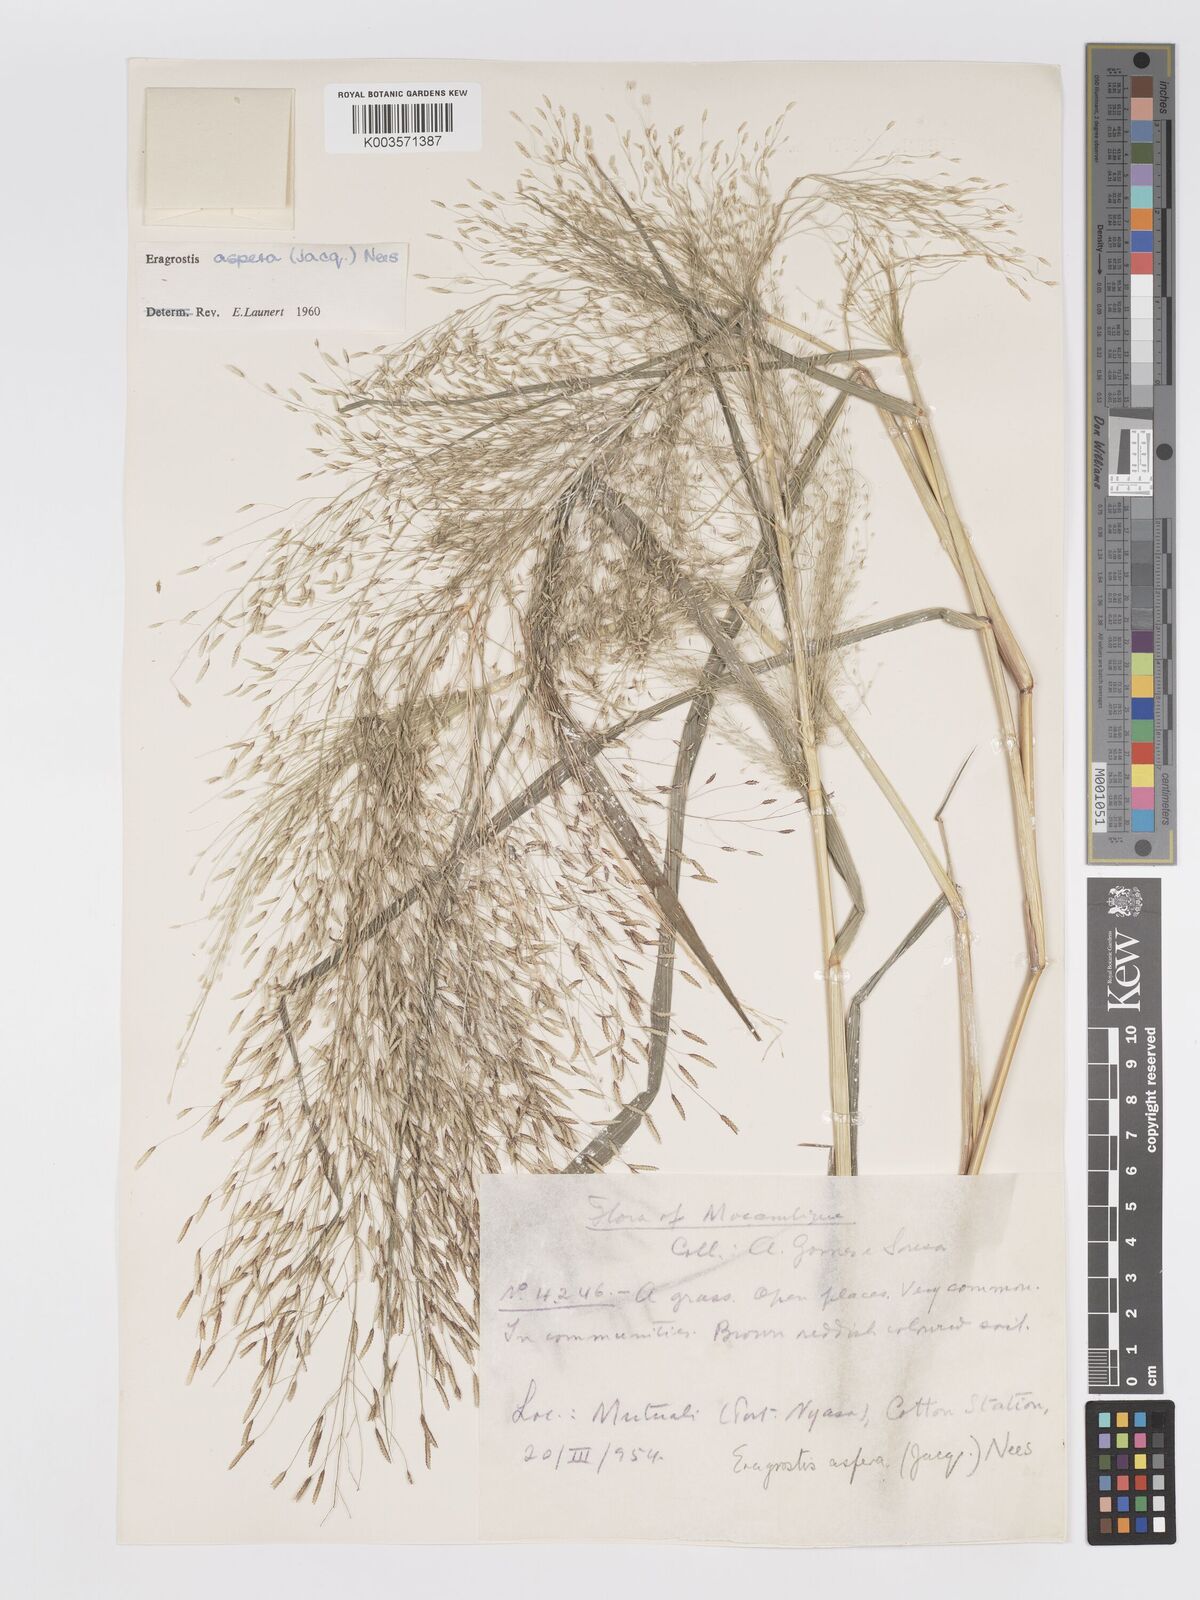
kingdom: Plantae
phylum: Tracheophyta
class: Liliopsida
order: Poales
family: Poaceae
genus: Eragrostis
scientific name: Eragrostis aspera
